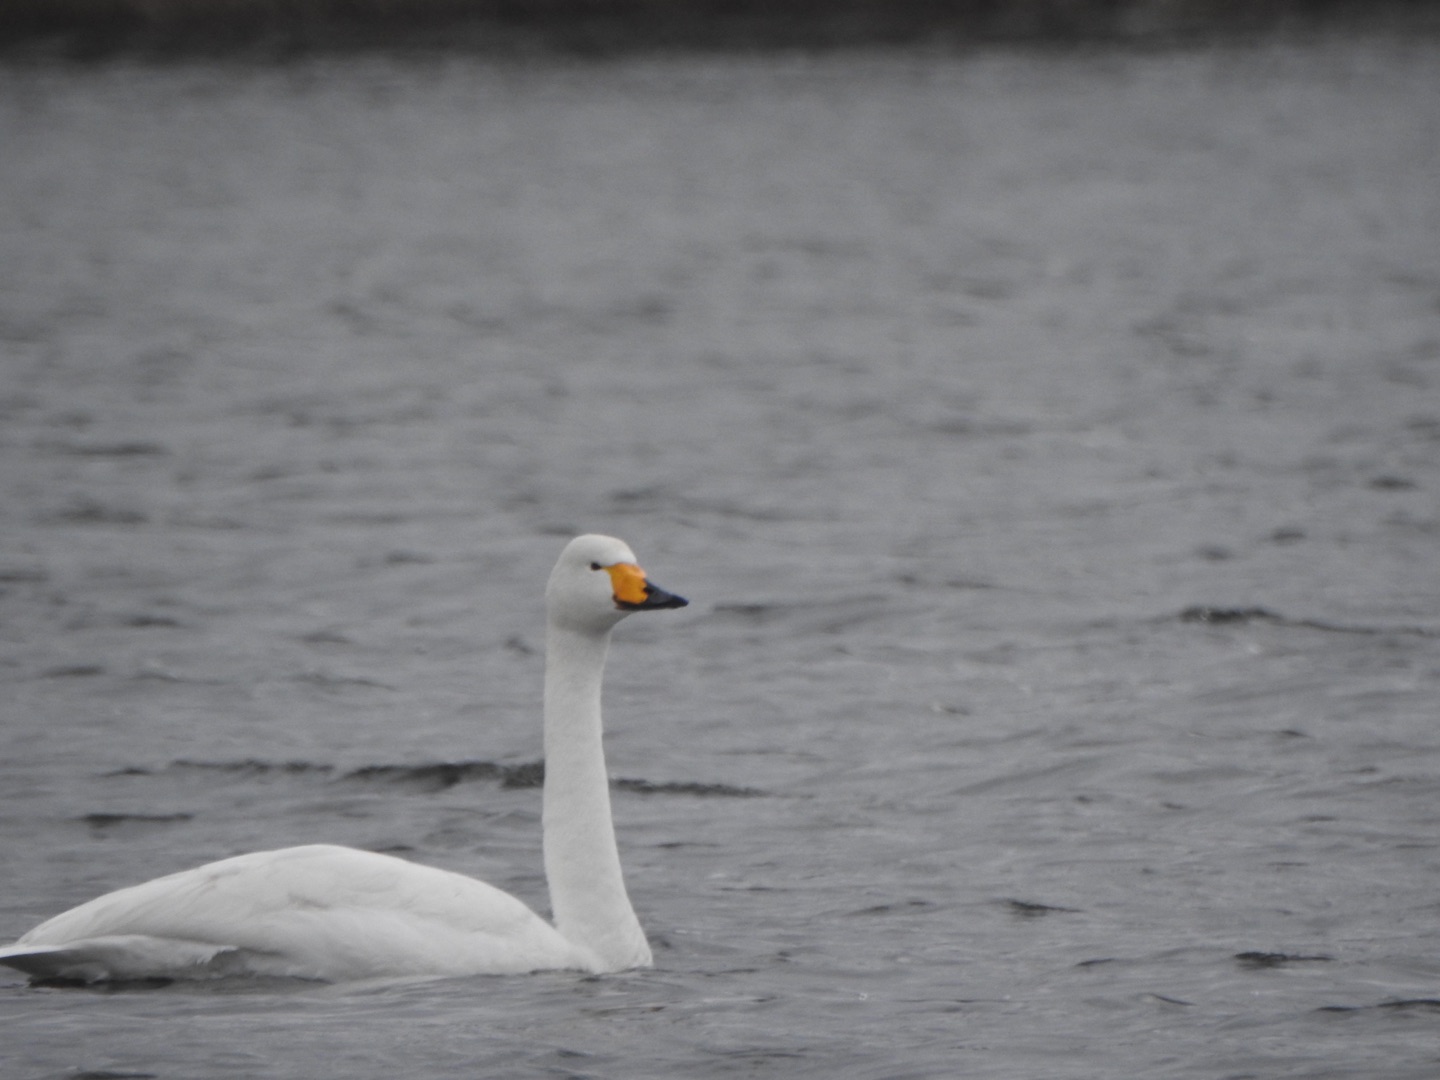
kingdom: Animalia
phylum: Chordata
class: Aves
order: Anseriformes
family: Anatidae
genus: Cygnus
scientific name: Cygnus cygnus
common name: Sangsvane
